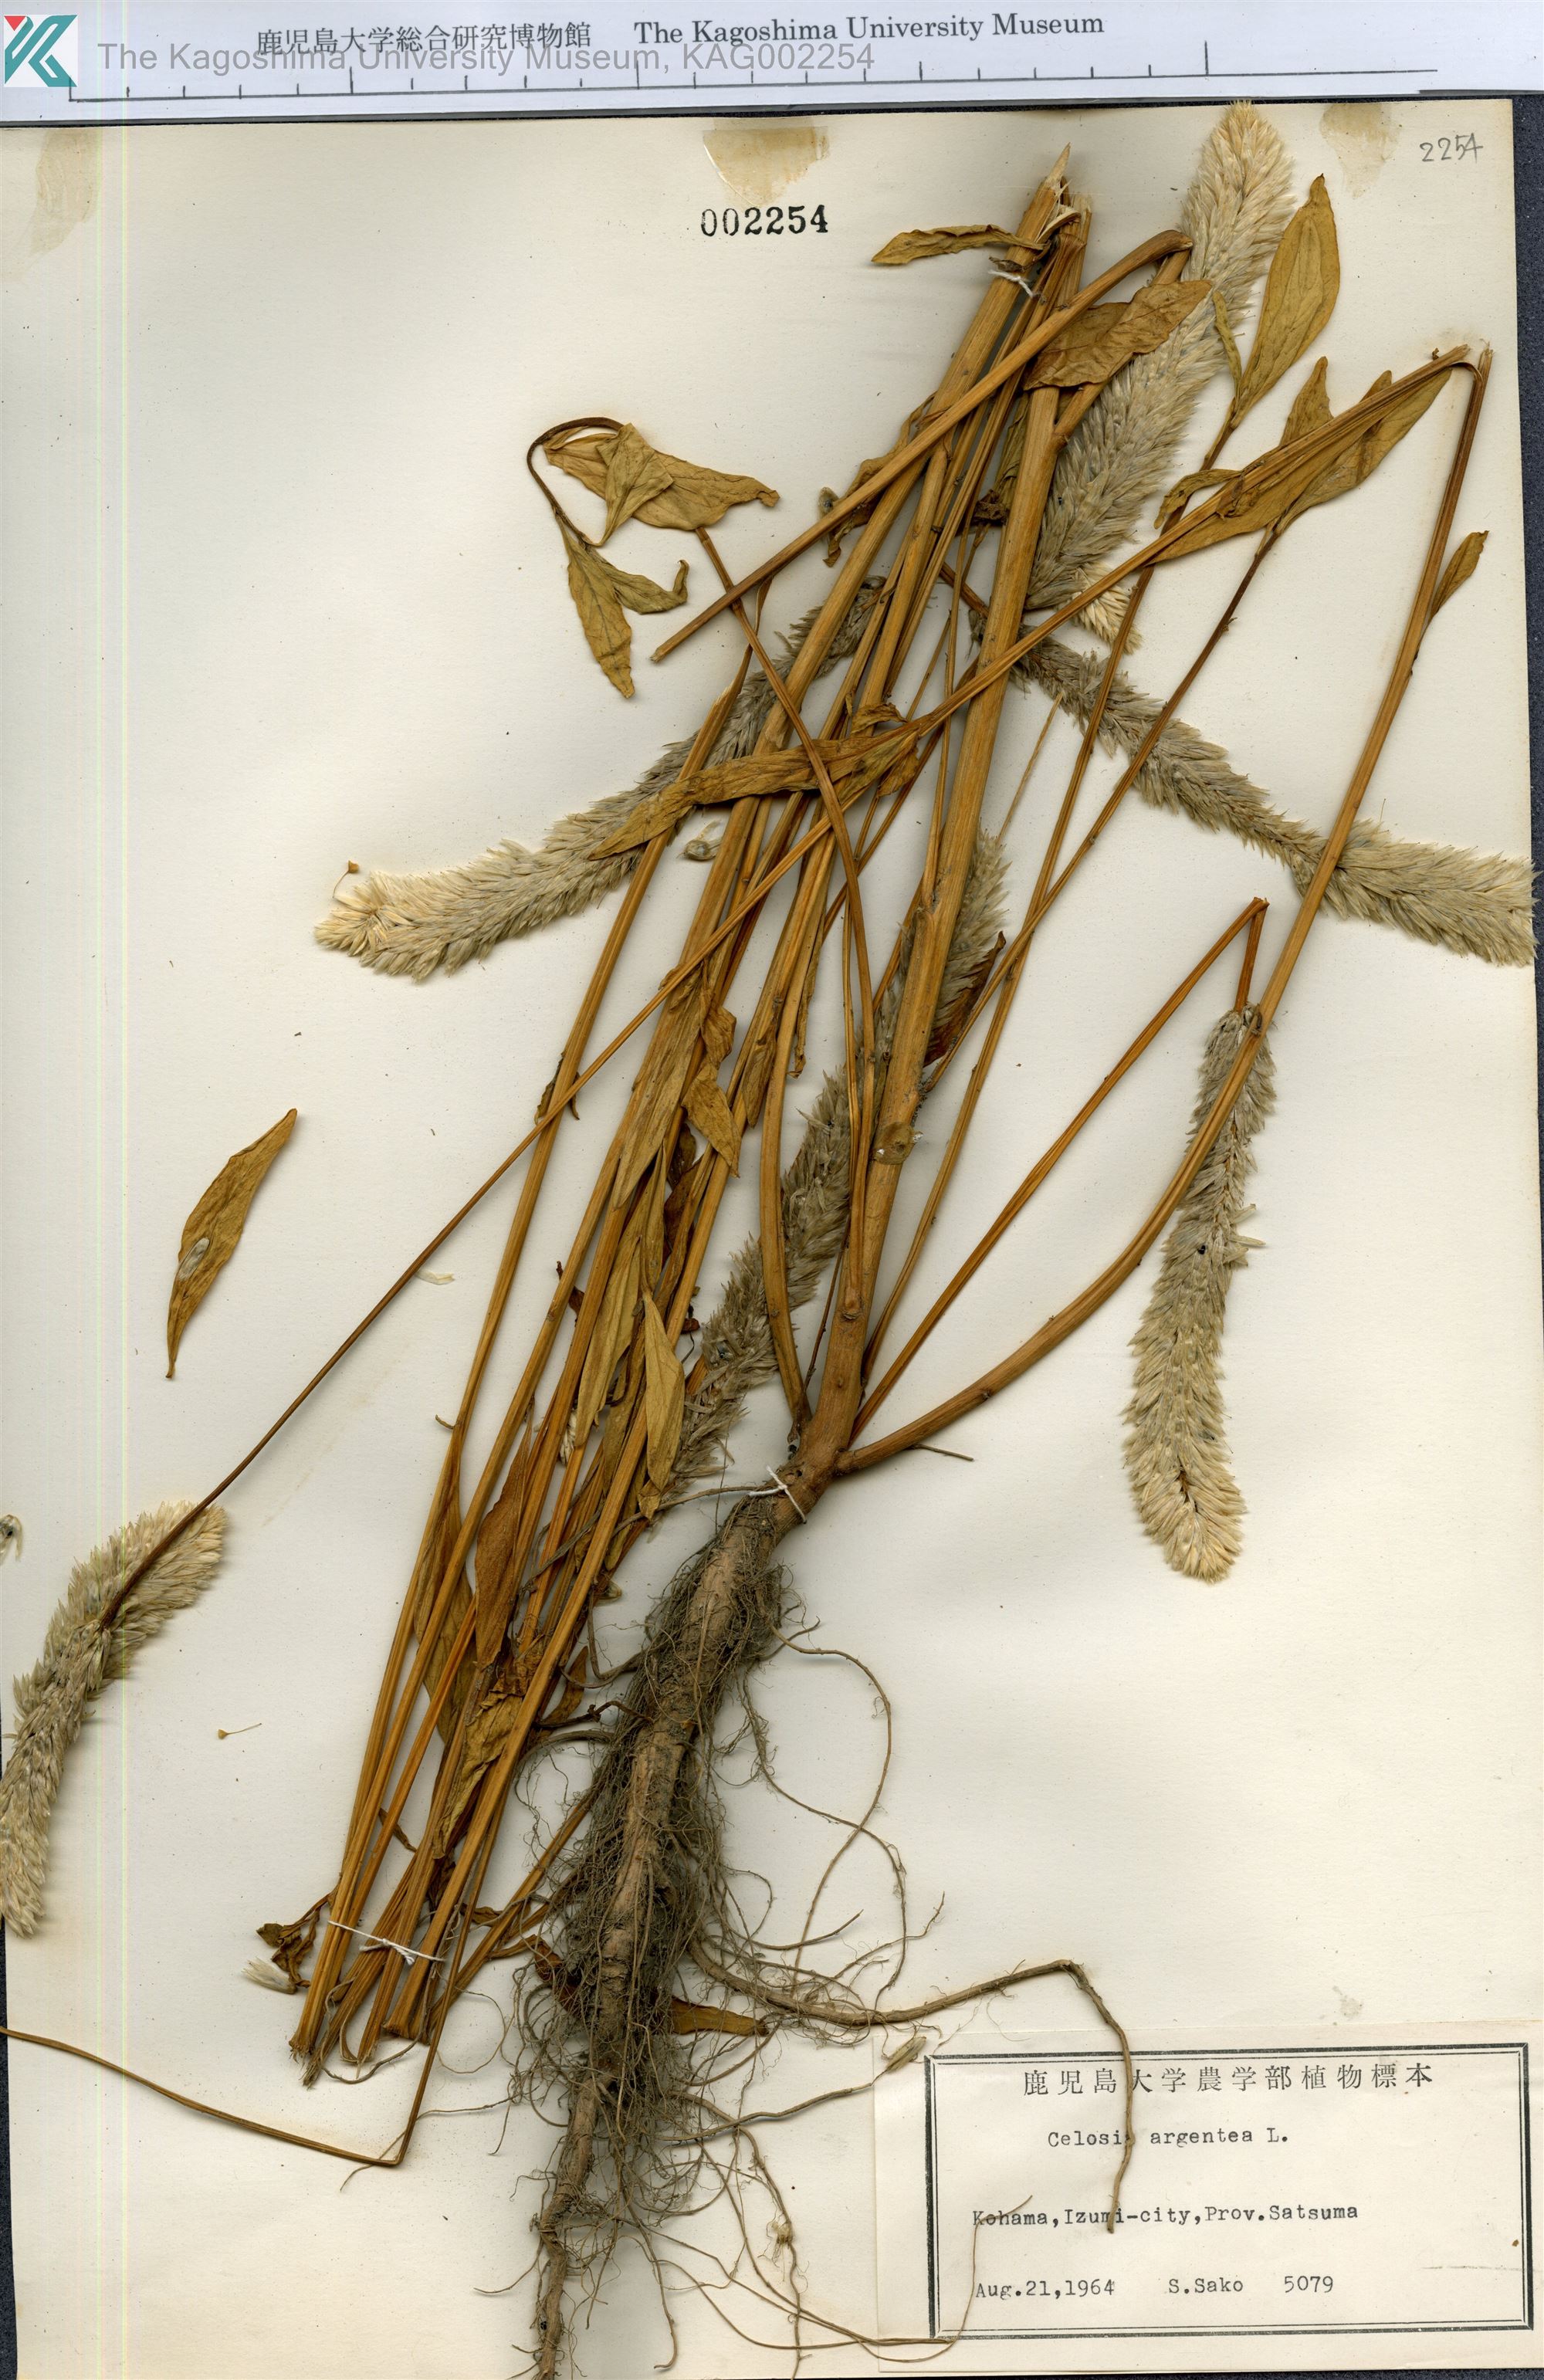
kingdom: Plantae
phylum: Tracheophyta
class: Magnoliopsida
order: Caryophyllales
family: Amaranthaceae
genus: Celosia
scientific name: Celosia argentea
